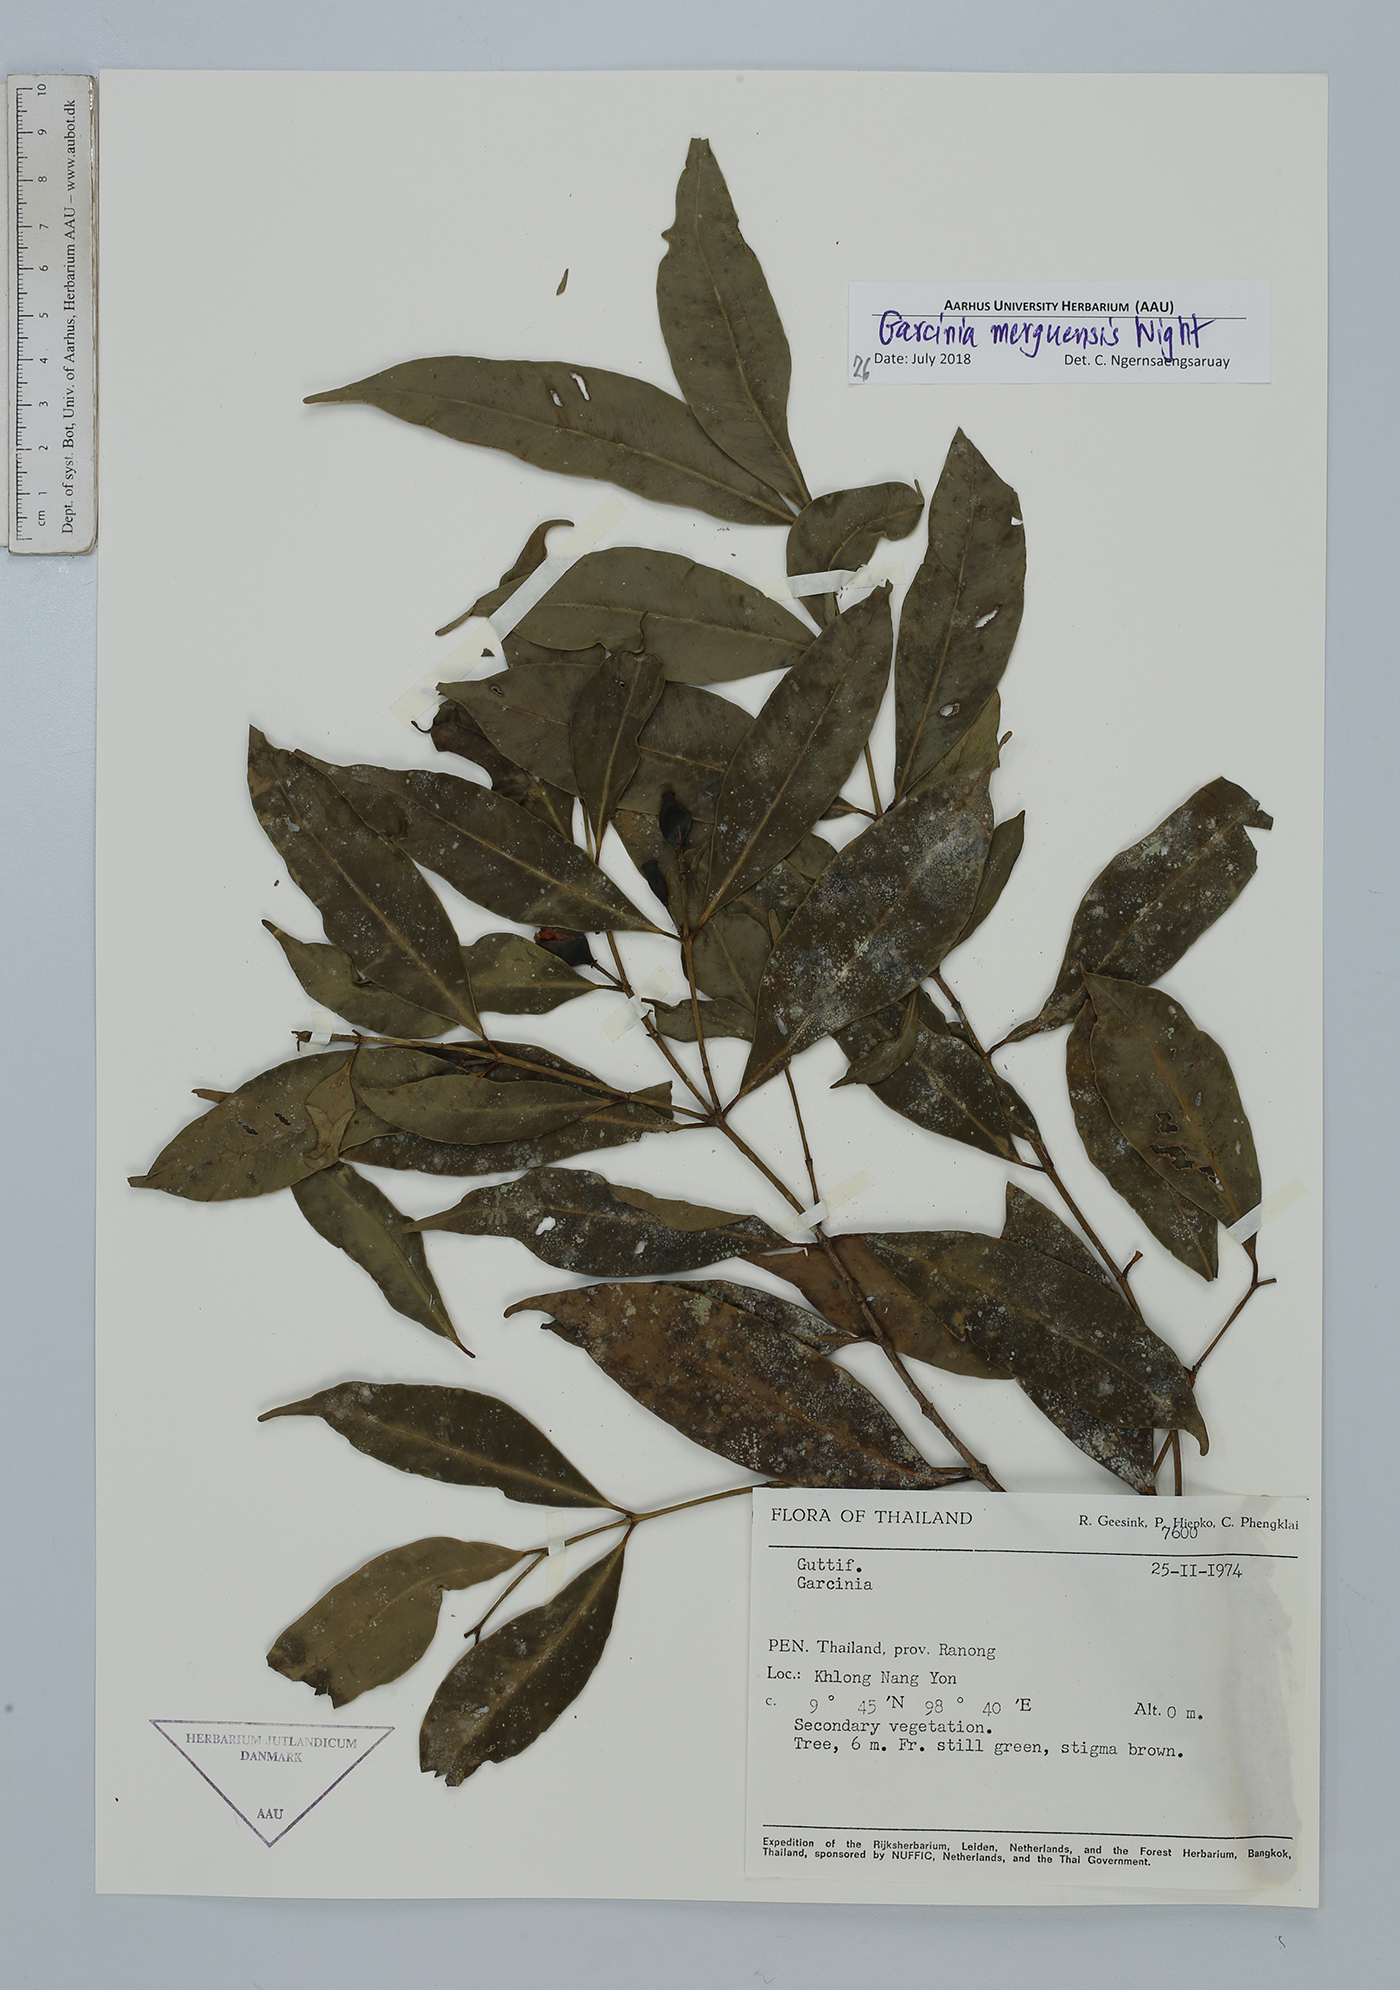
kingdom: Plantae
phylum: Tracheophyta
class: Magnoliopsida
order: Malpighiales
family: Clusiaceae
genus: Garcinia
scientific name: Garcinia merguensis
